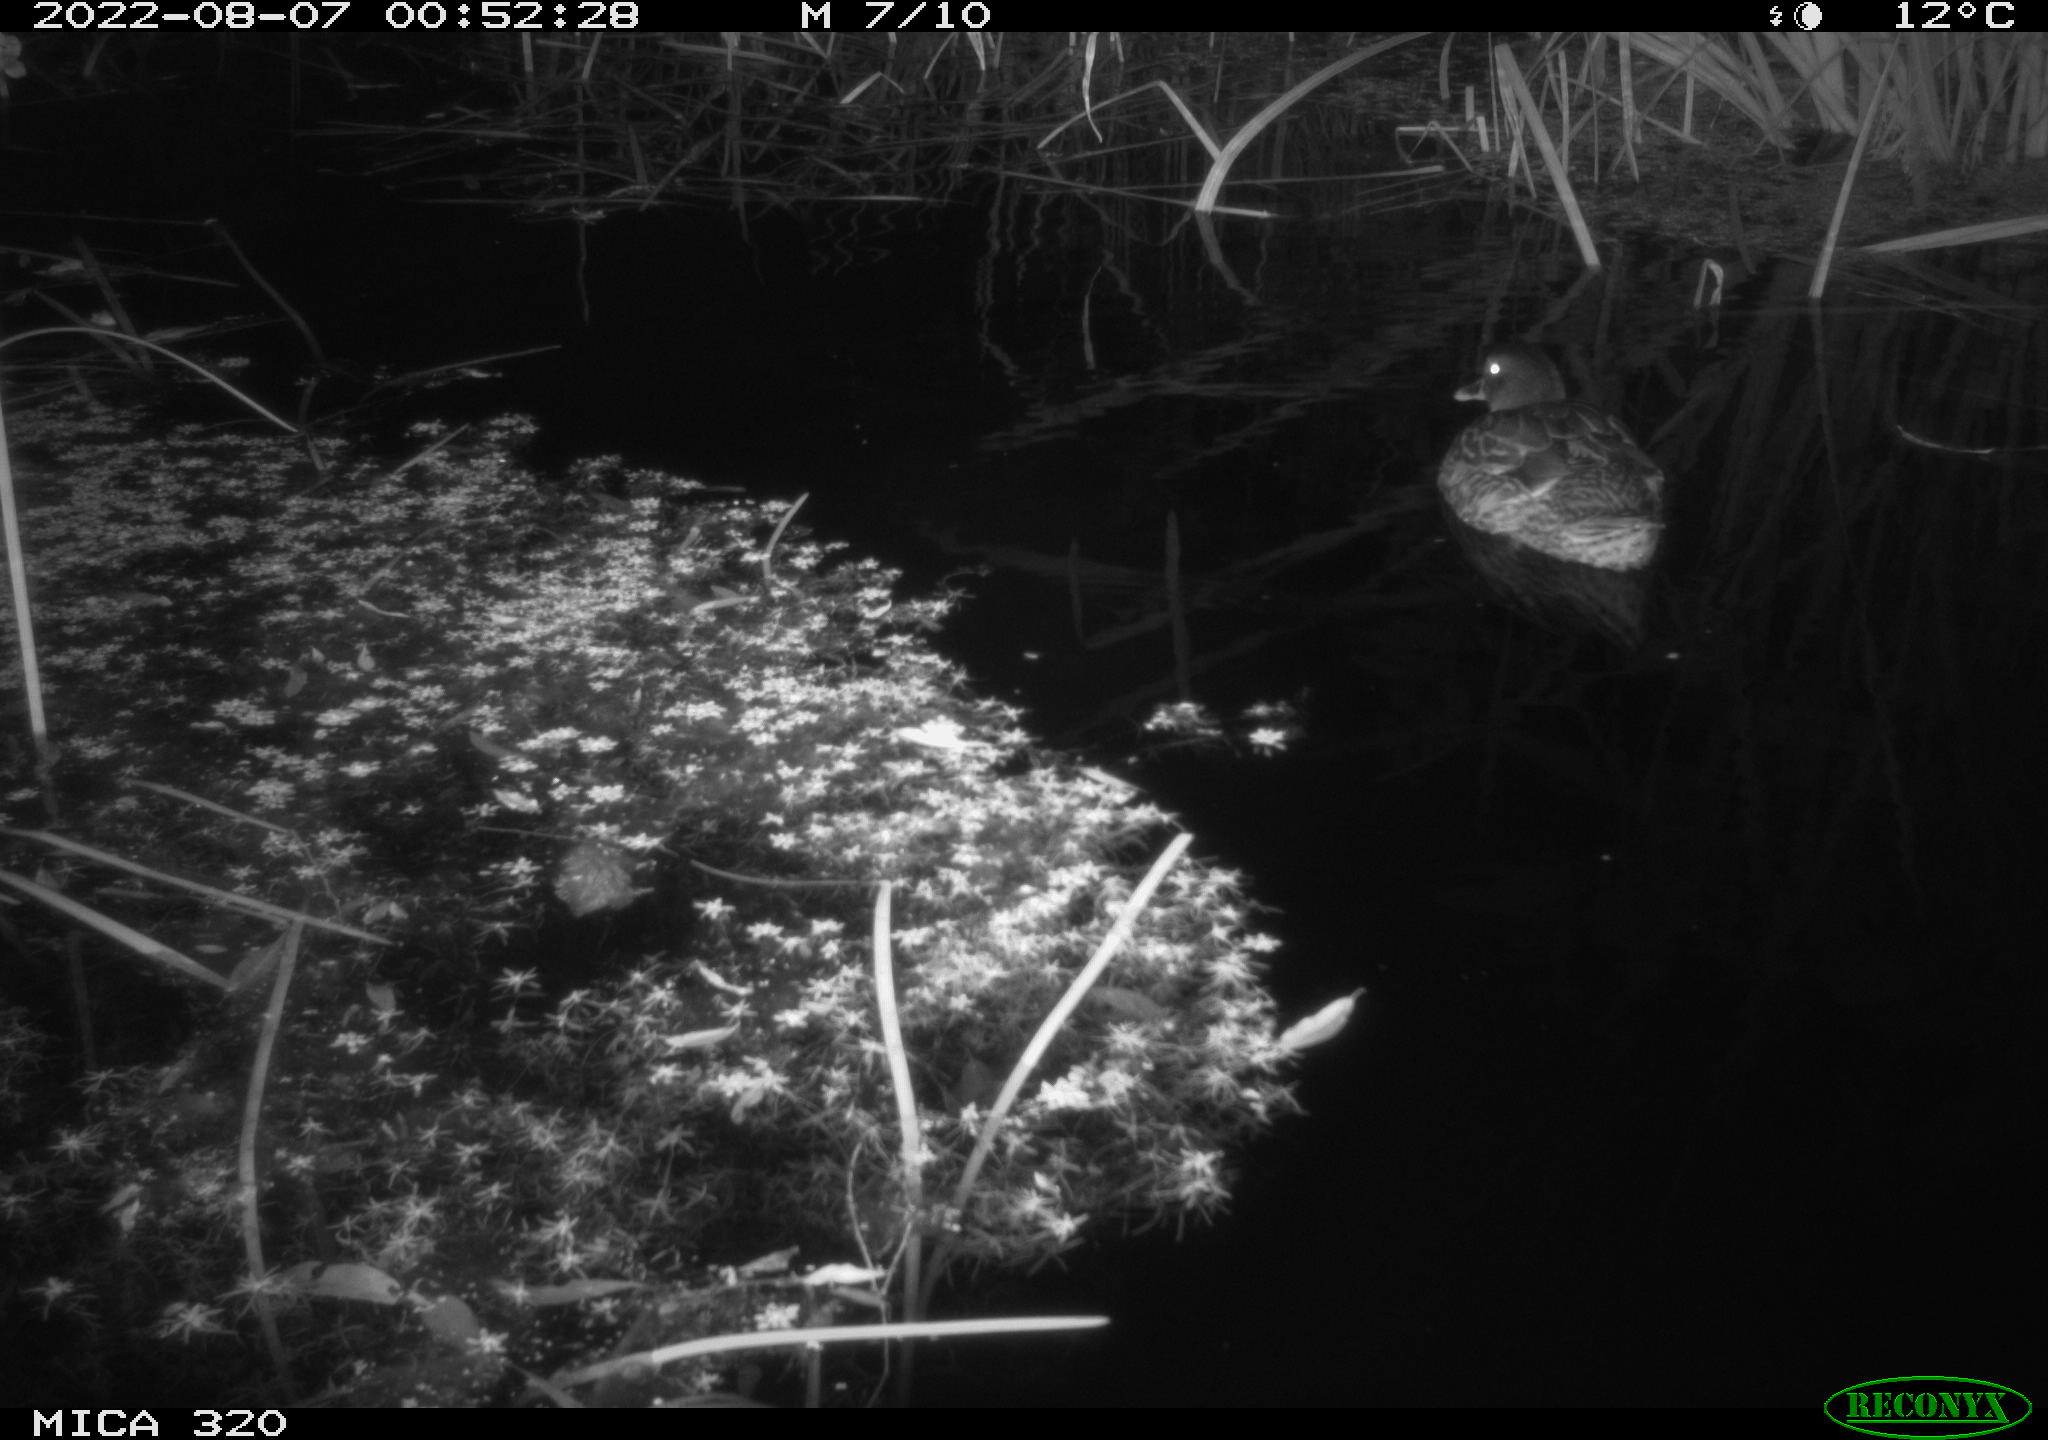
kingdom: Animalia
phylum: Chordata
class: Aves
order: Anseriformes
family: Anatidae
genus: Anas
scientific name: Anas platyrhynchos
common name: Mallard
